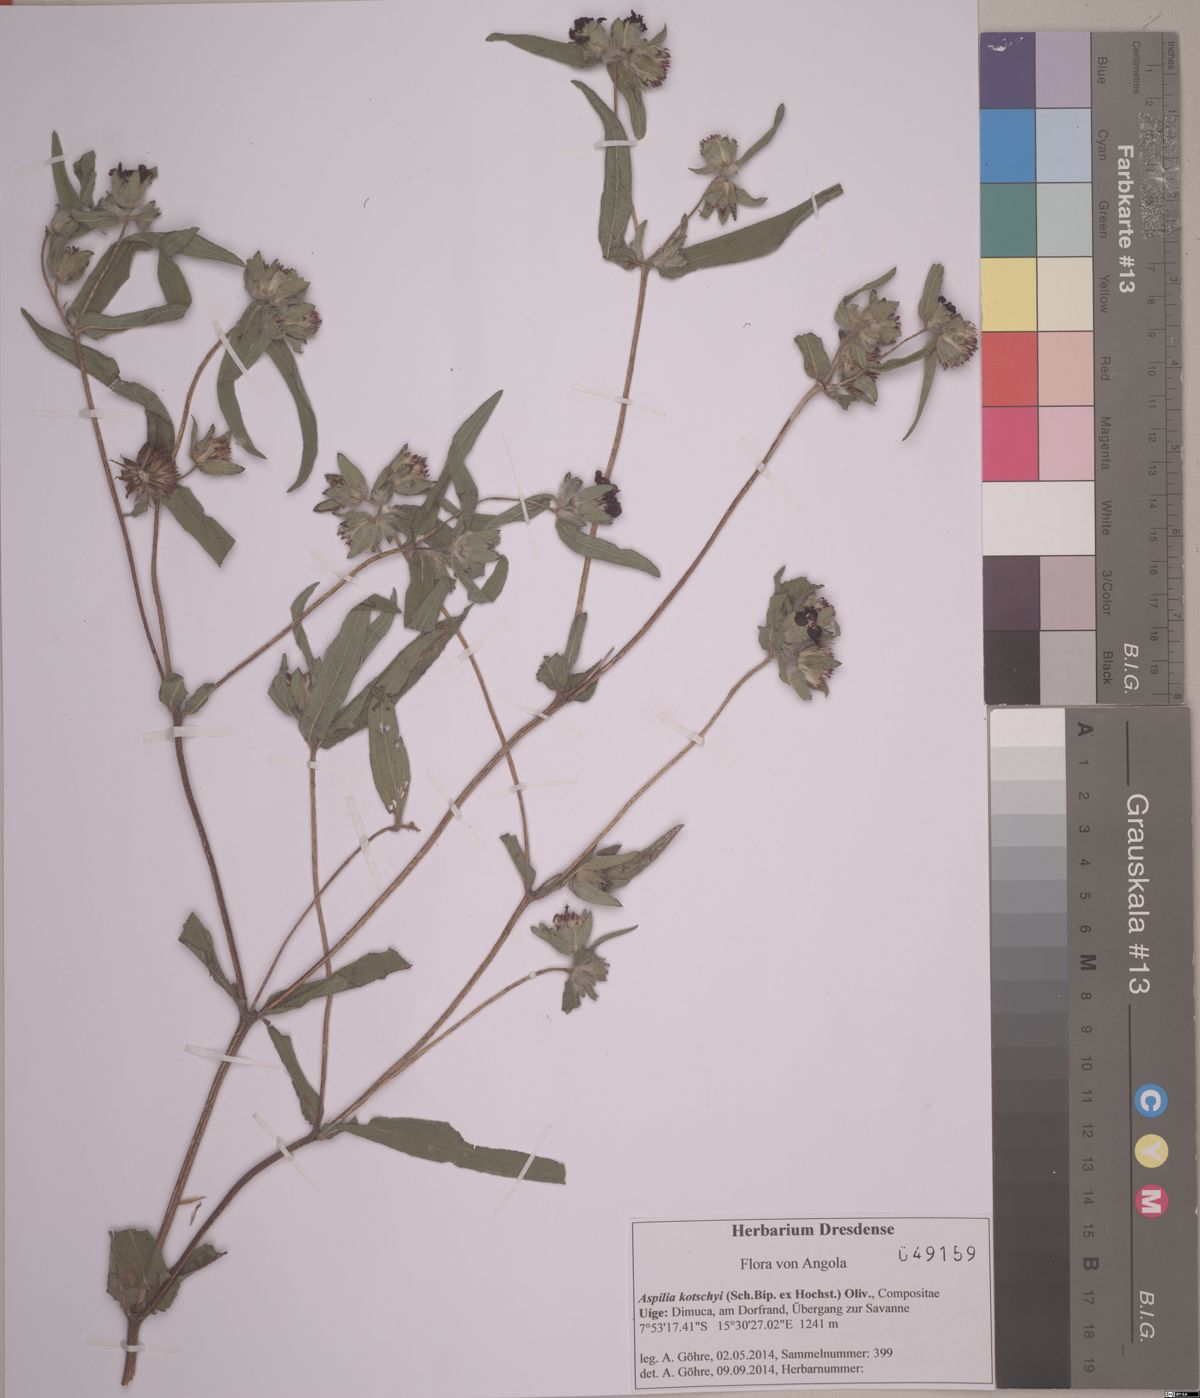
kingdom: Plantae
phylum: Tracheophyta
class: Magnoliopsida
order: Asterales
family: Asteraceae
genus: Aspilia
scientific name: Aspilia kotschyi
